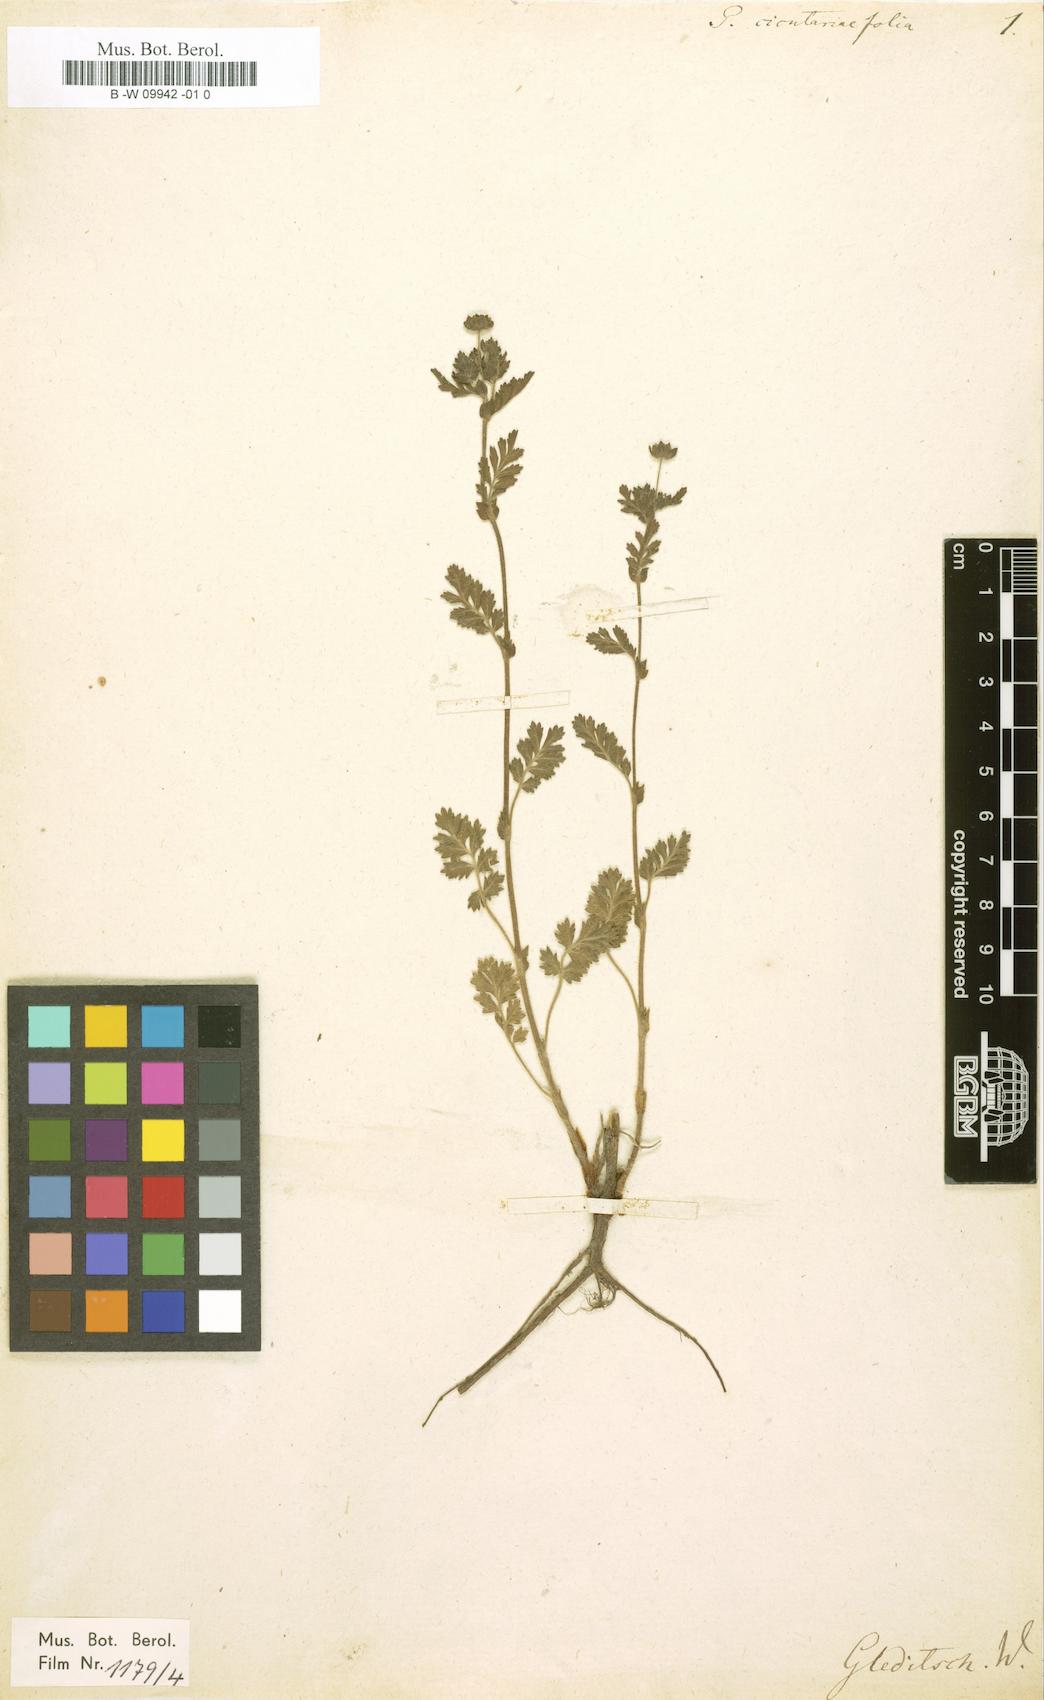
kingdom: Plantae
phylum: Tracheophyta
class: Magnoliopsida
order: Rosales
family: Rosaceae
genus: Potentilla
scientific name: Potentilla supina
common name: Prostrate cinquefoil
